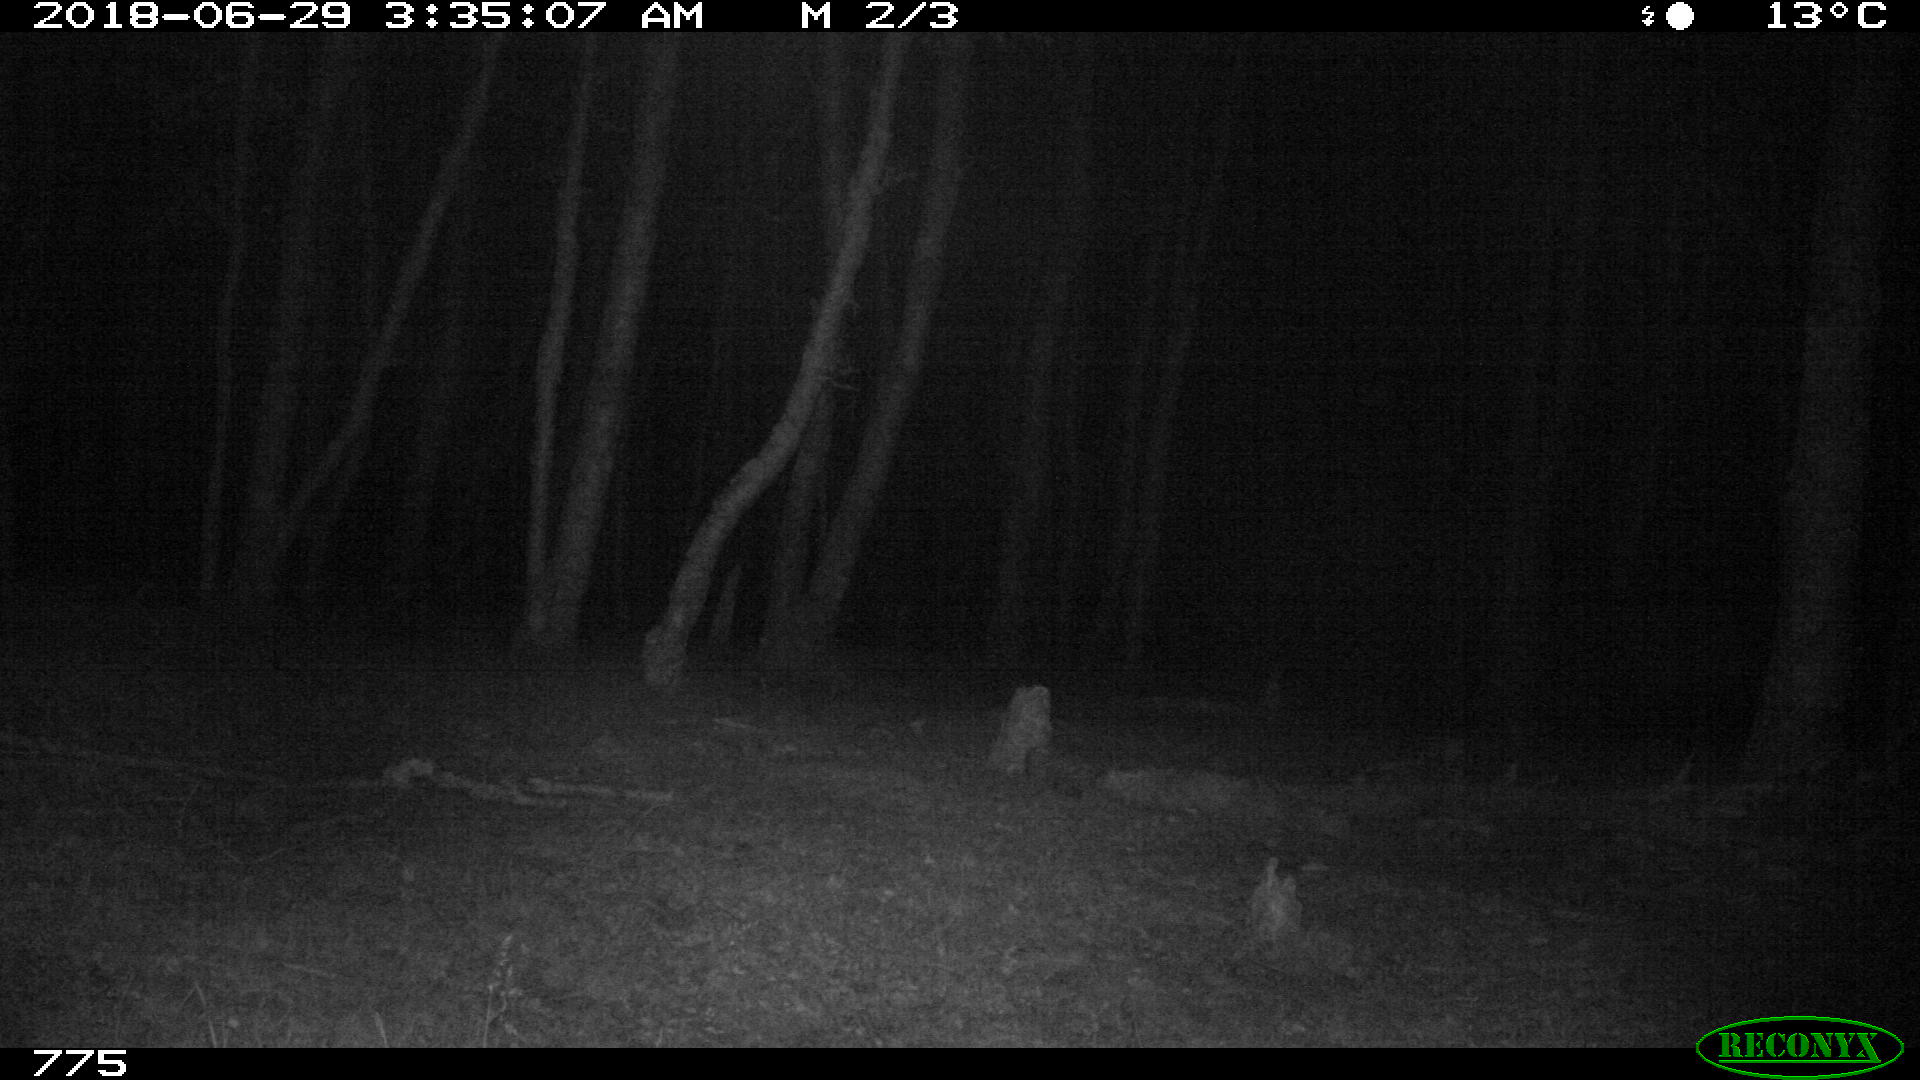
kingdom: Animalia
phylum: Chordata
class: Mammalia
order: Perissodactyla
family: Equidae
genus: Equus
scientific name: Equus caballus
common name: Horse
